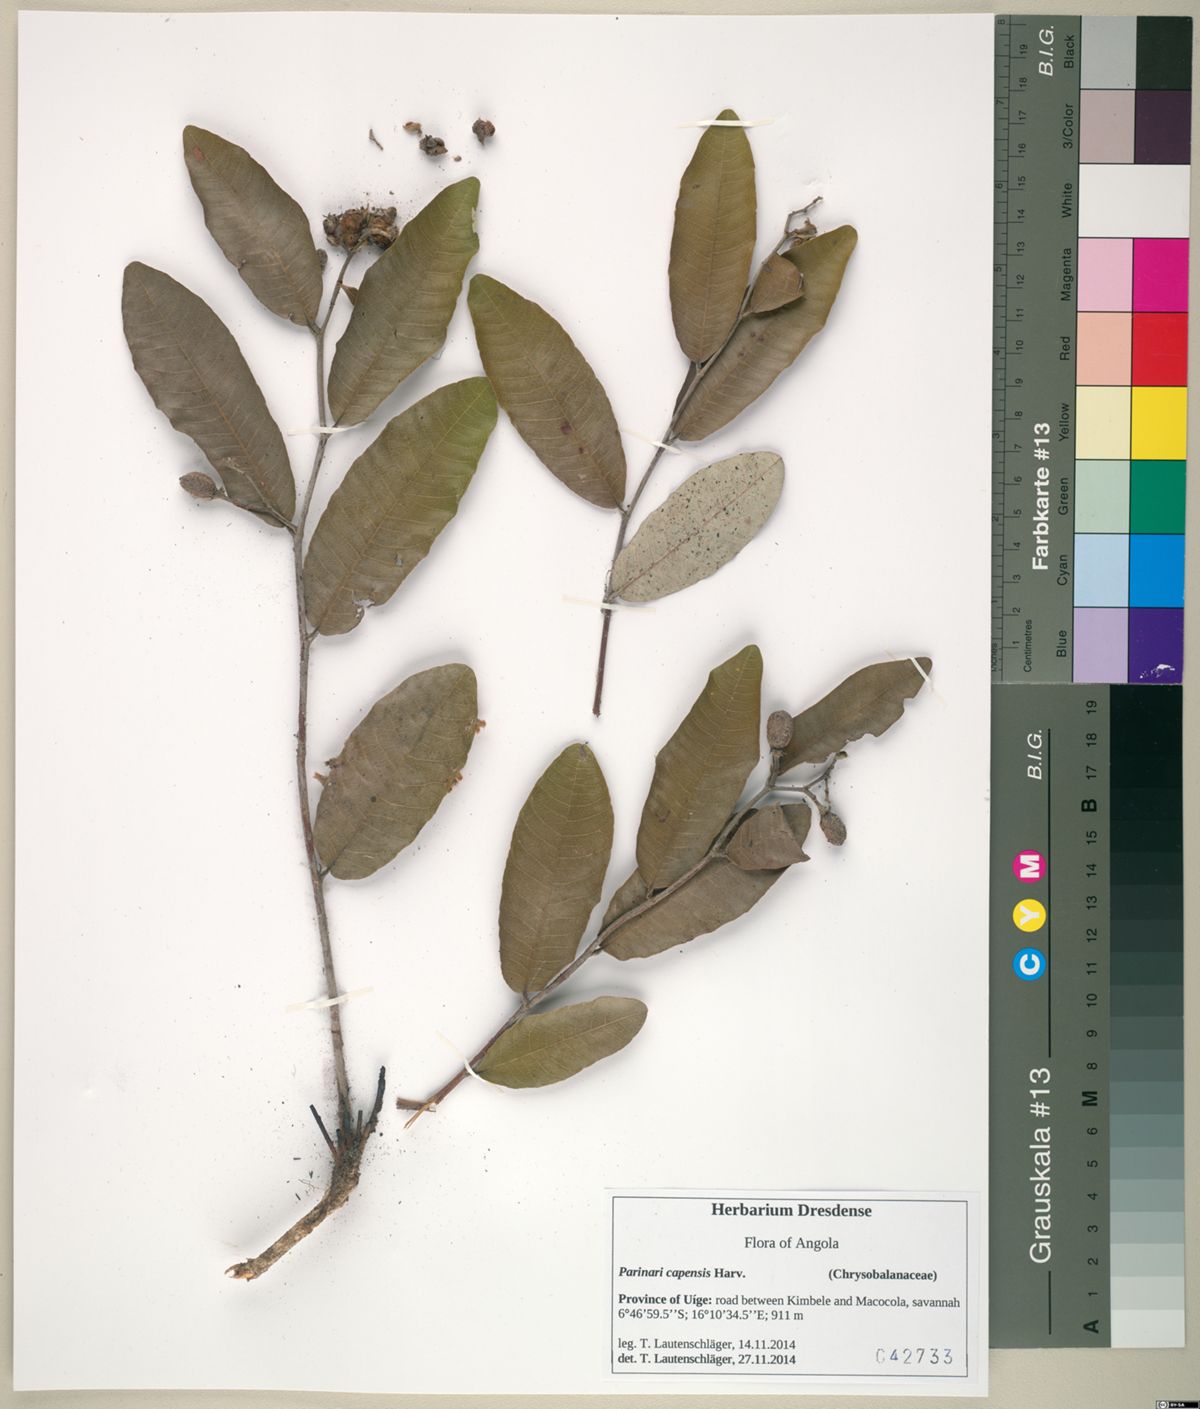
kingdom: Plantae
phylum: Tracheophyta
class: Magnoliopsida
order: Malpighiales
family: Chrysobalanaceae
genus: Parinari
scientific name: Parinari capensis
